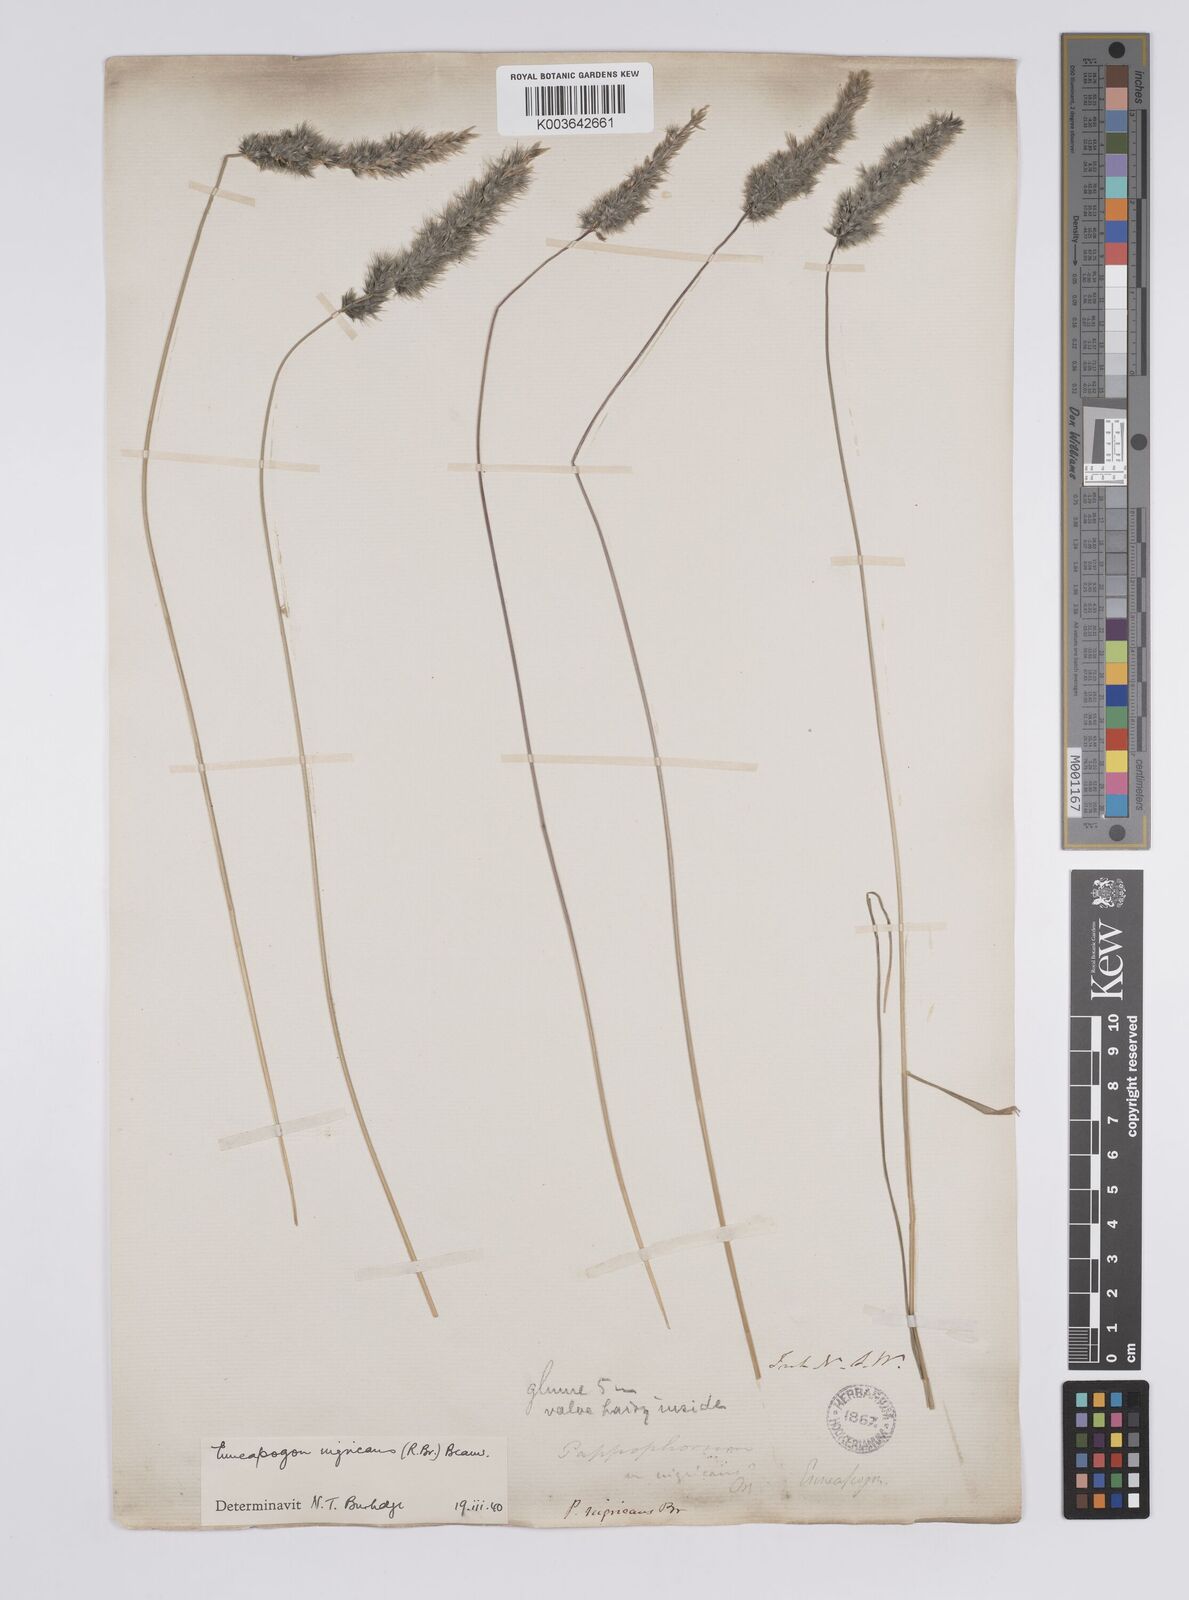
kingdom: Plantae
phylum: Tracheophyta
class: Liliopsida
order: Poales
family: Poaceae
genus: Enneapogon
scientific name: Enneapogon nigricans
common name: Pappus grass
